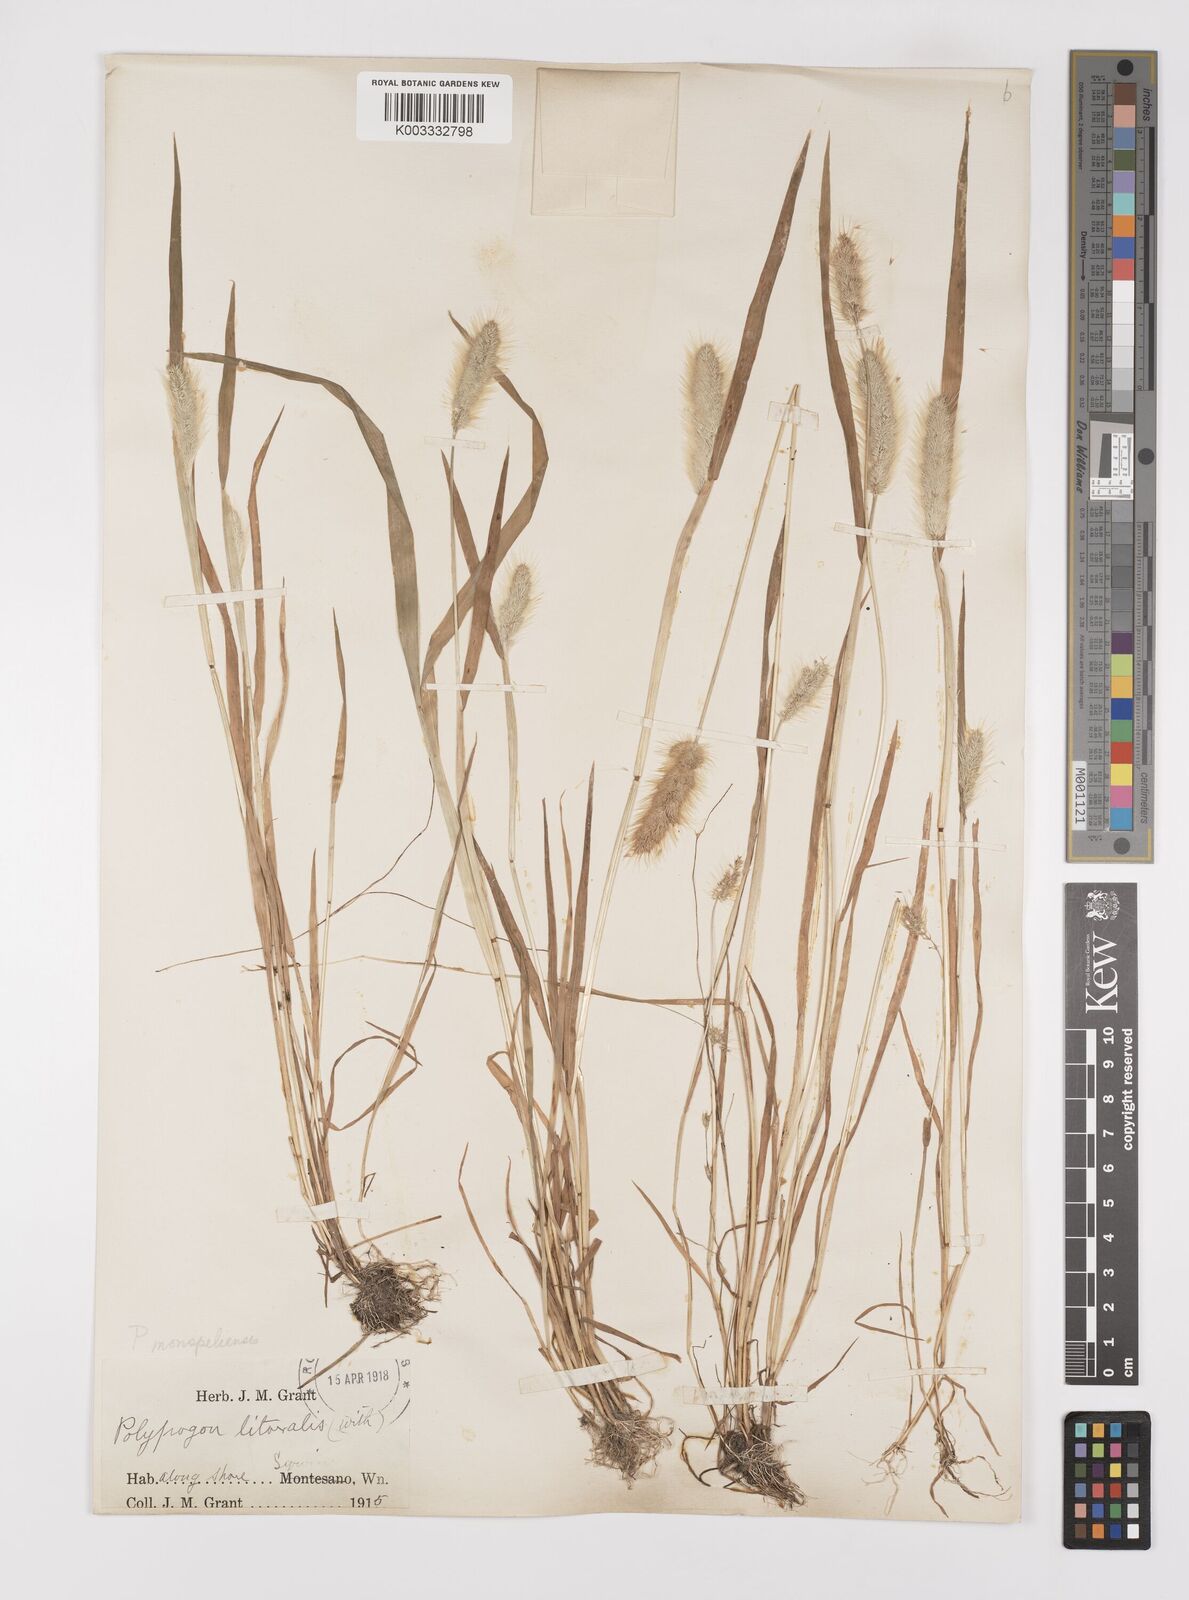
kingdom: Plantae
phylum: Tracheophyta
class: Liliopsida
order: Poales
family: Poaceae
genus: Polypogon
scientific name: Polypogon monspeliensis
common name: Annual rabbitsfoot grass
